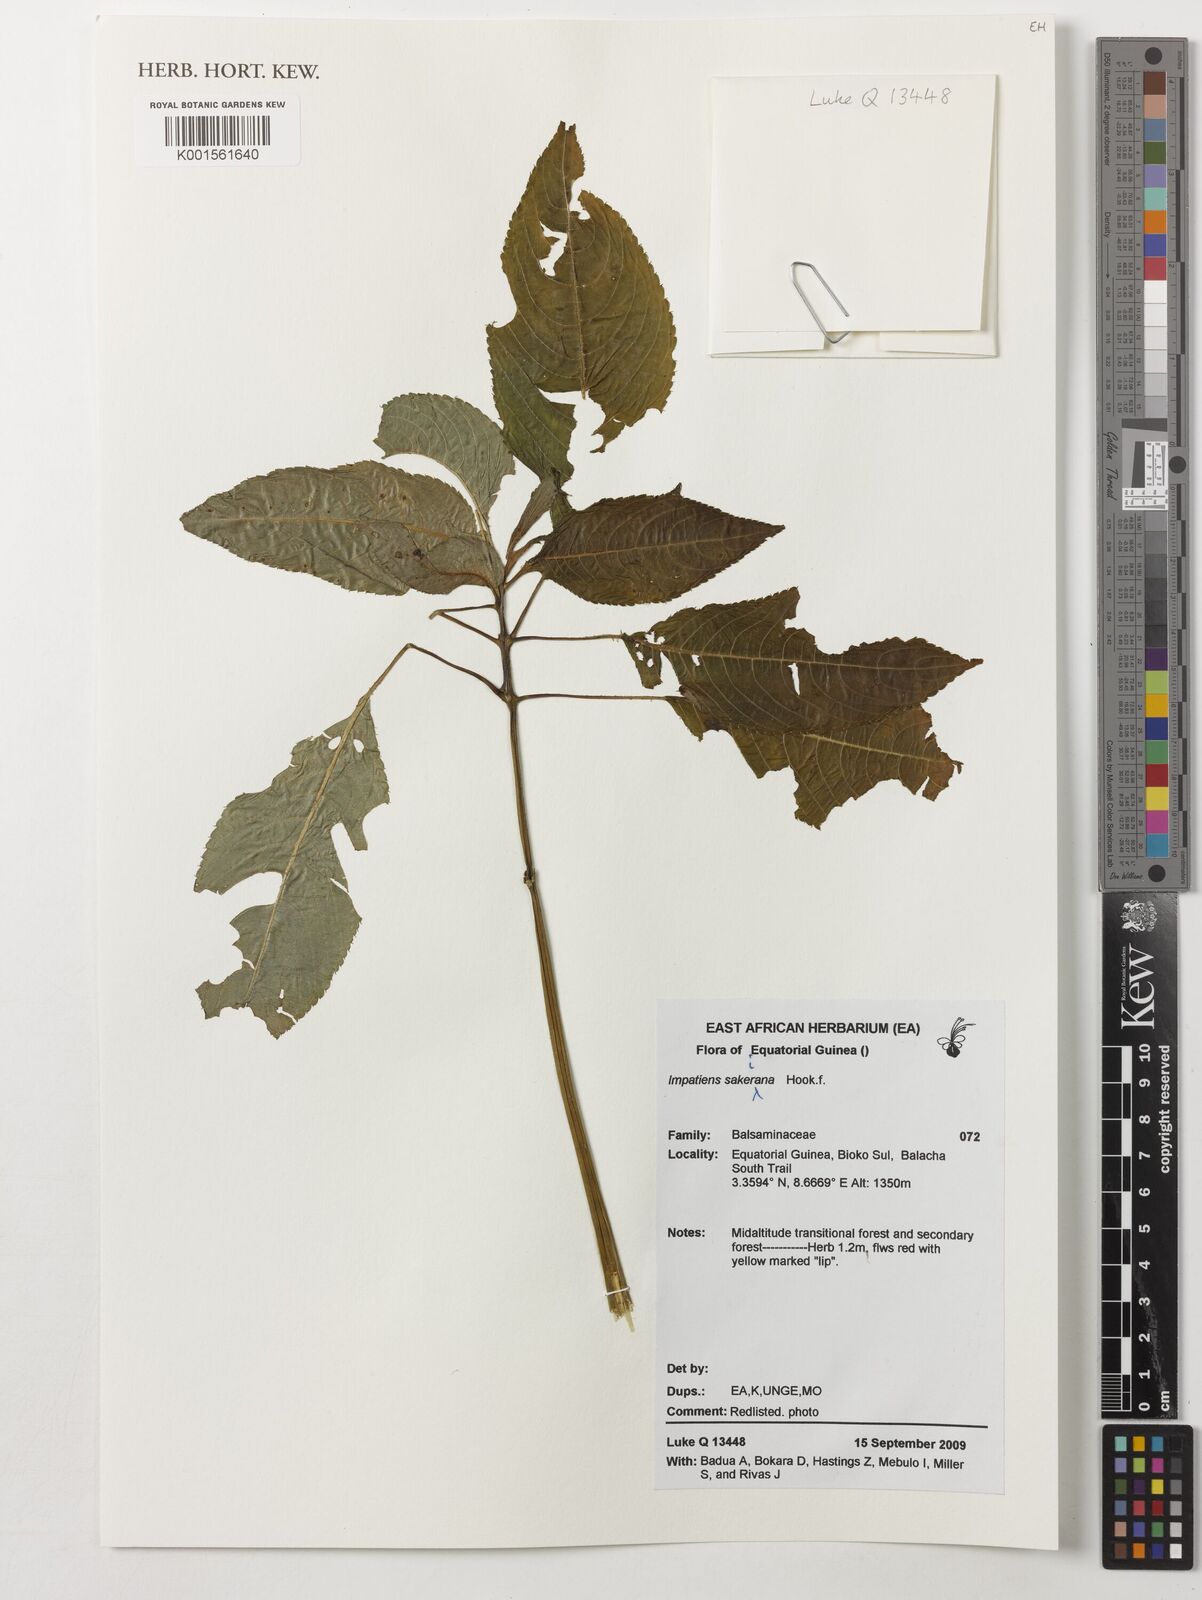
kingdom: Plantae
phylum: Tracheophyta
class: Magnoliopsida
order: Ericales
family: Balsaminaceae
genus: Impatiens
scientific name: Impatiens sakeriana
